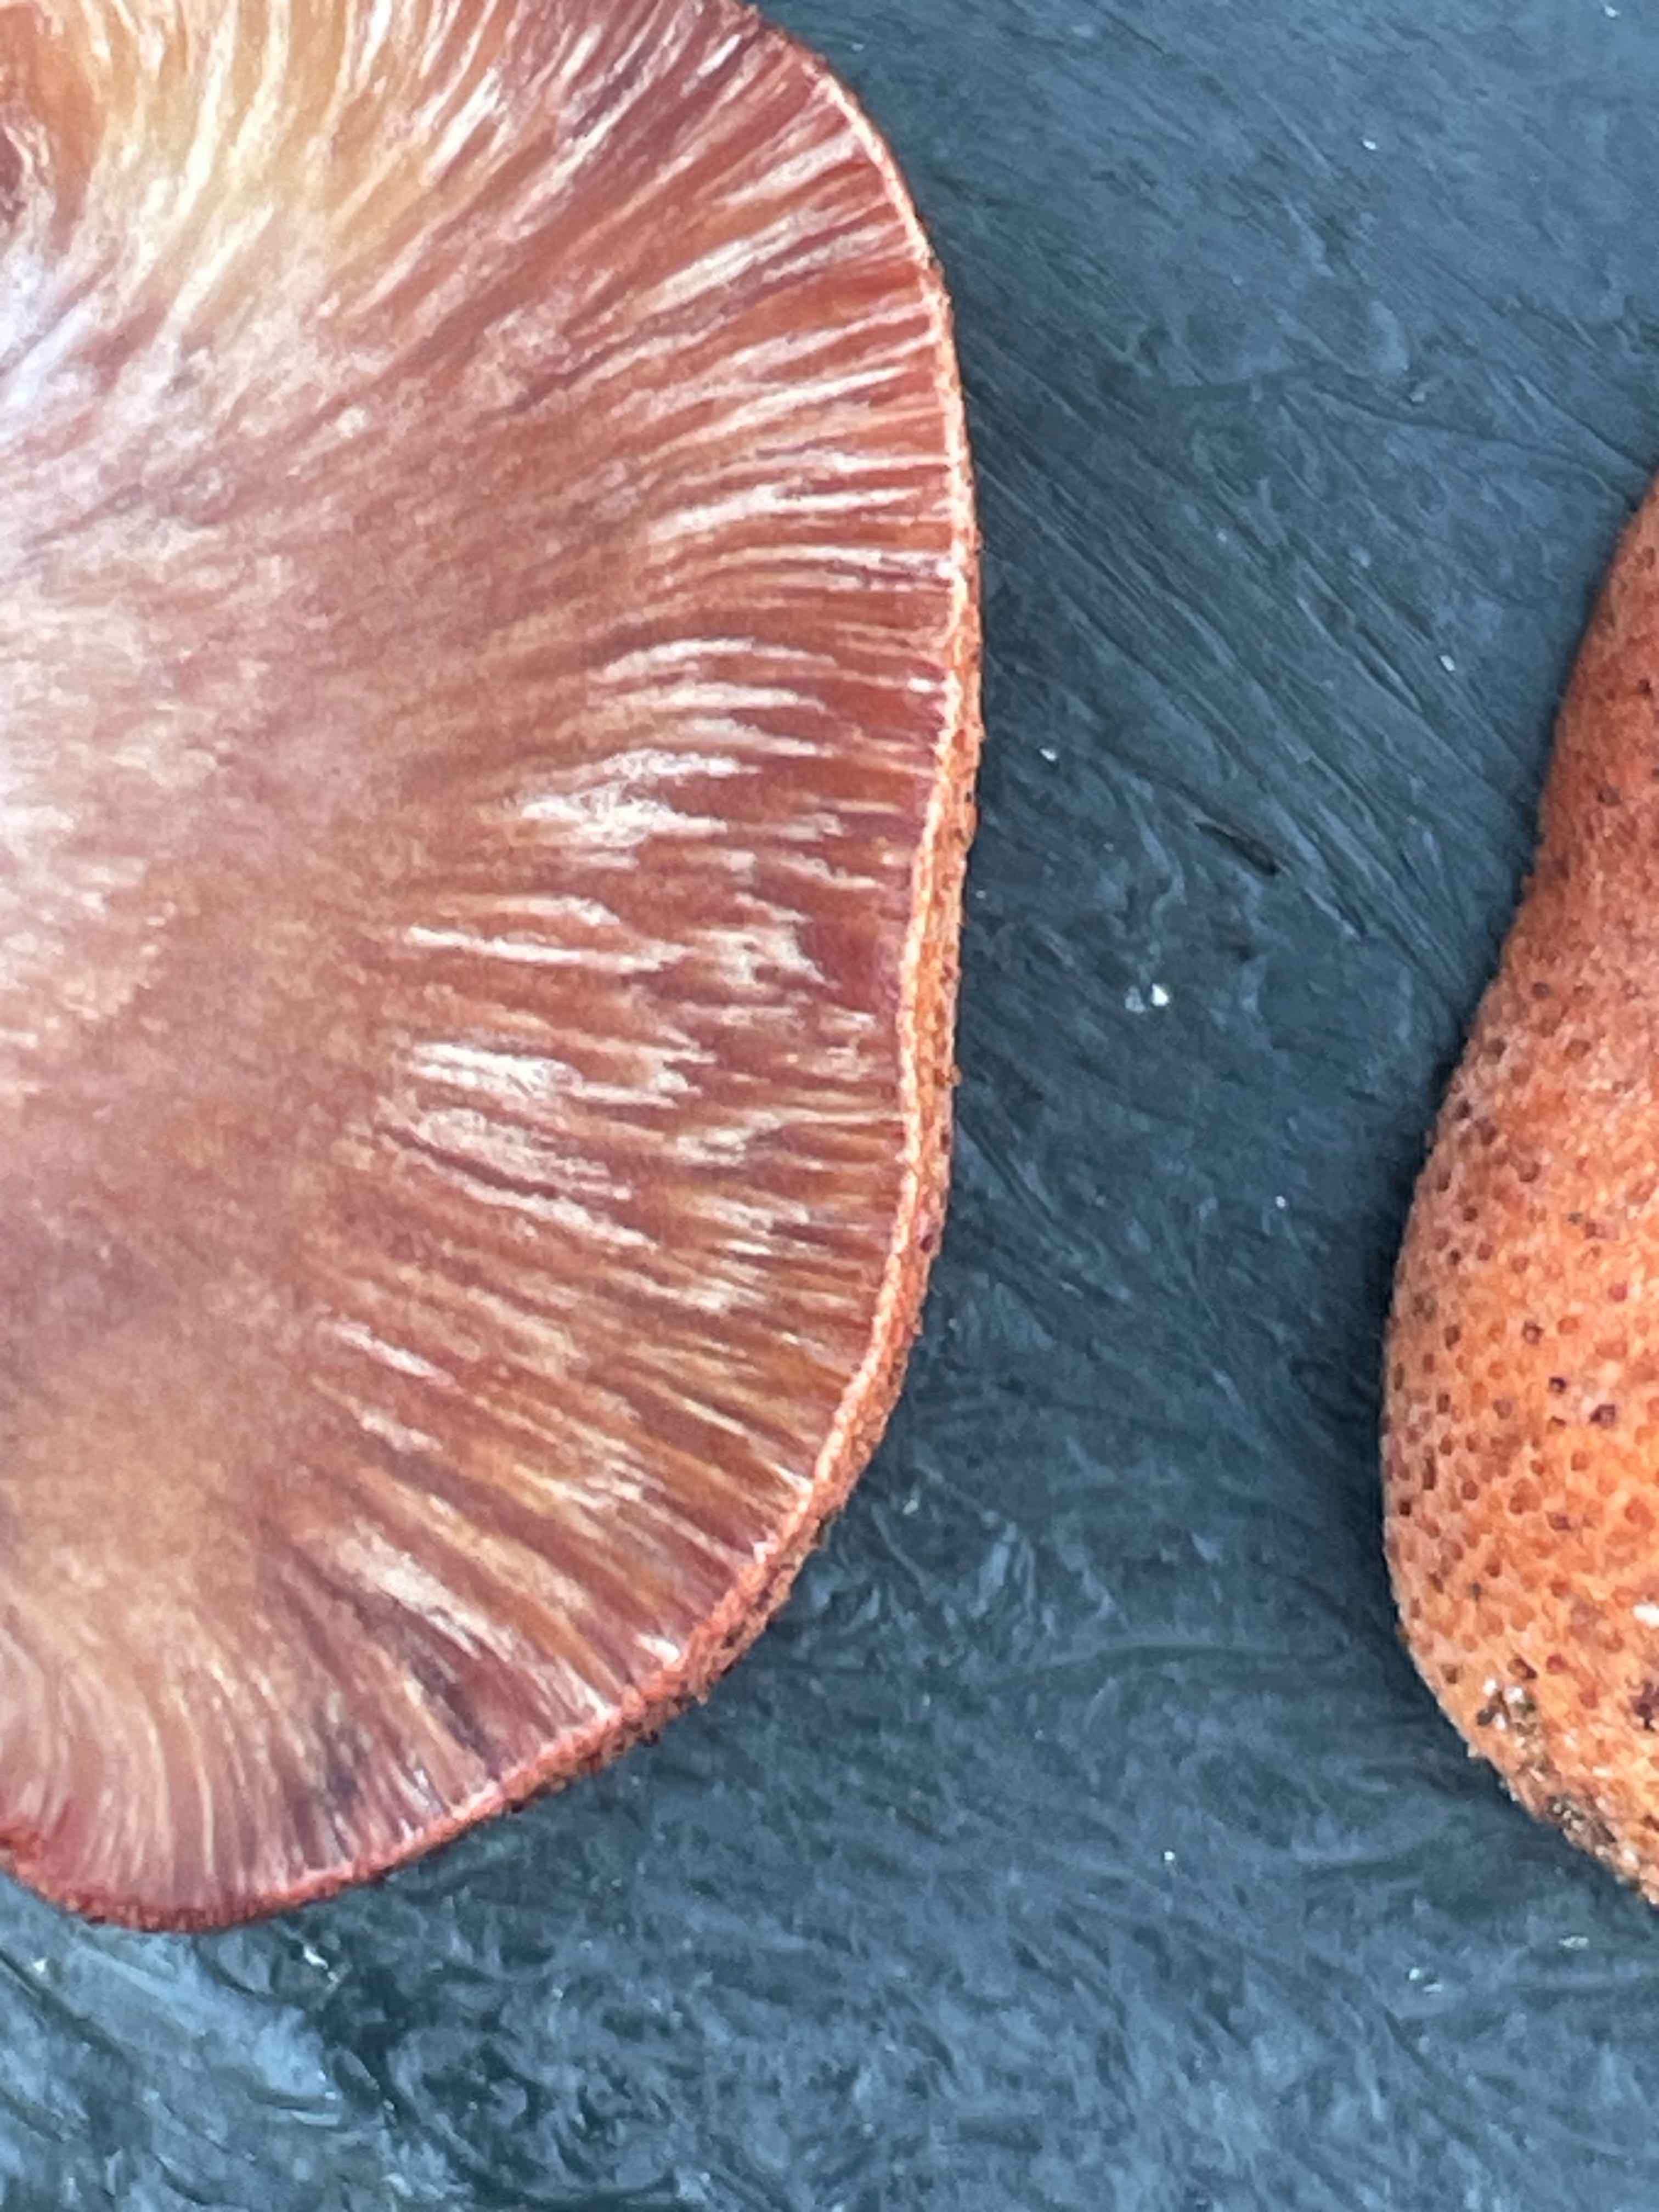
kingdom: Fungi
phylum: Basidiomycota
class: Agaricomycetes
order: Agaricales
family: Fistulinaceae
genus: Fistulina
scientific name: Fistulina hepatica
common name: oksetunge
